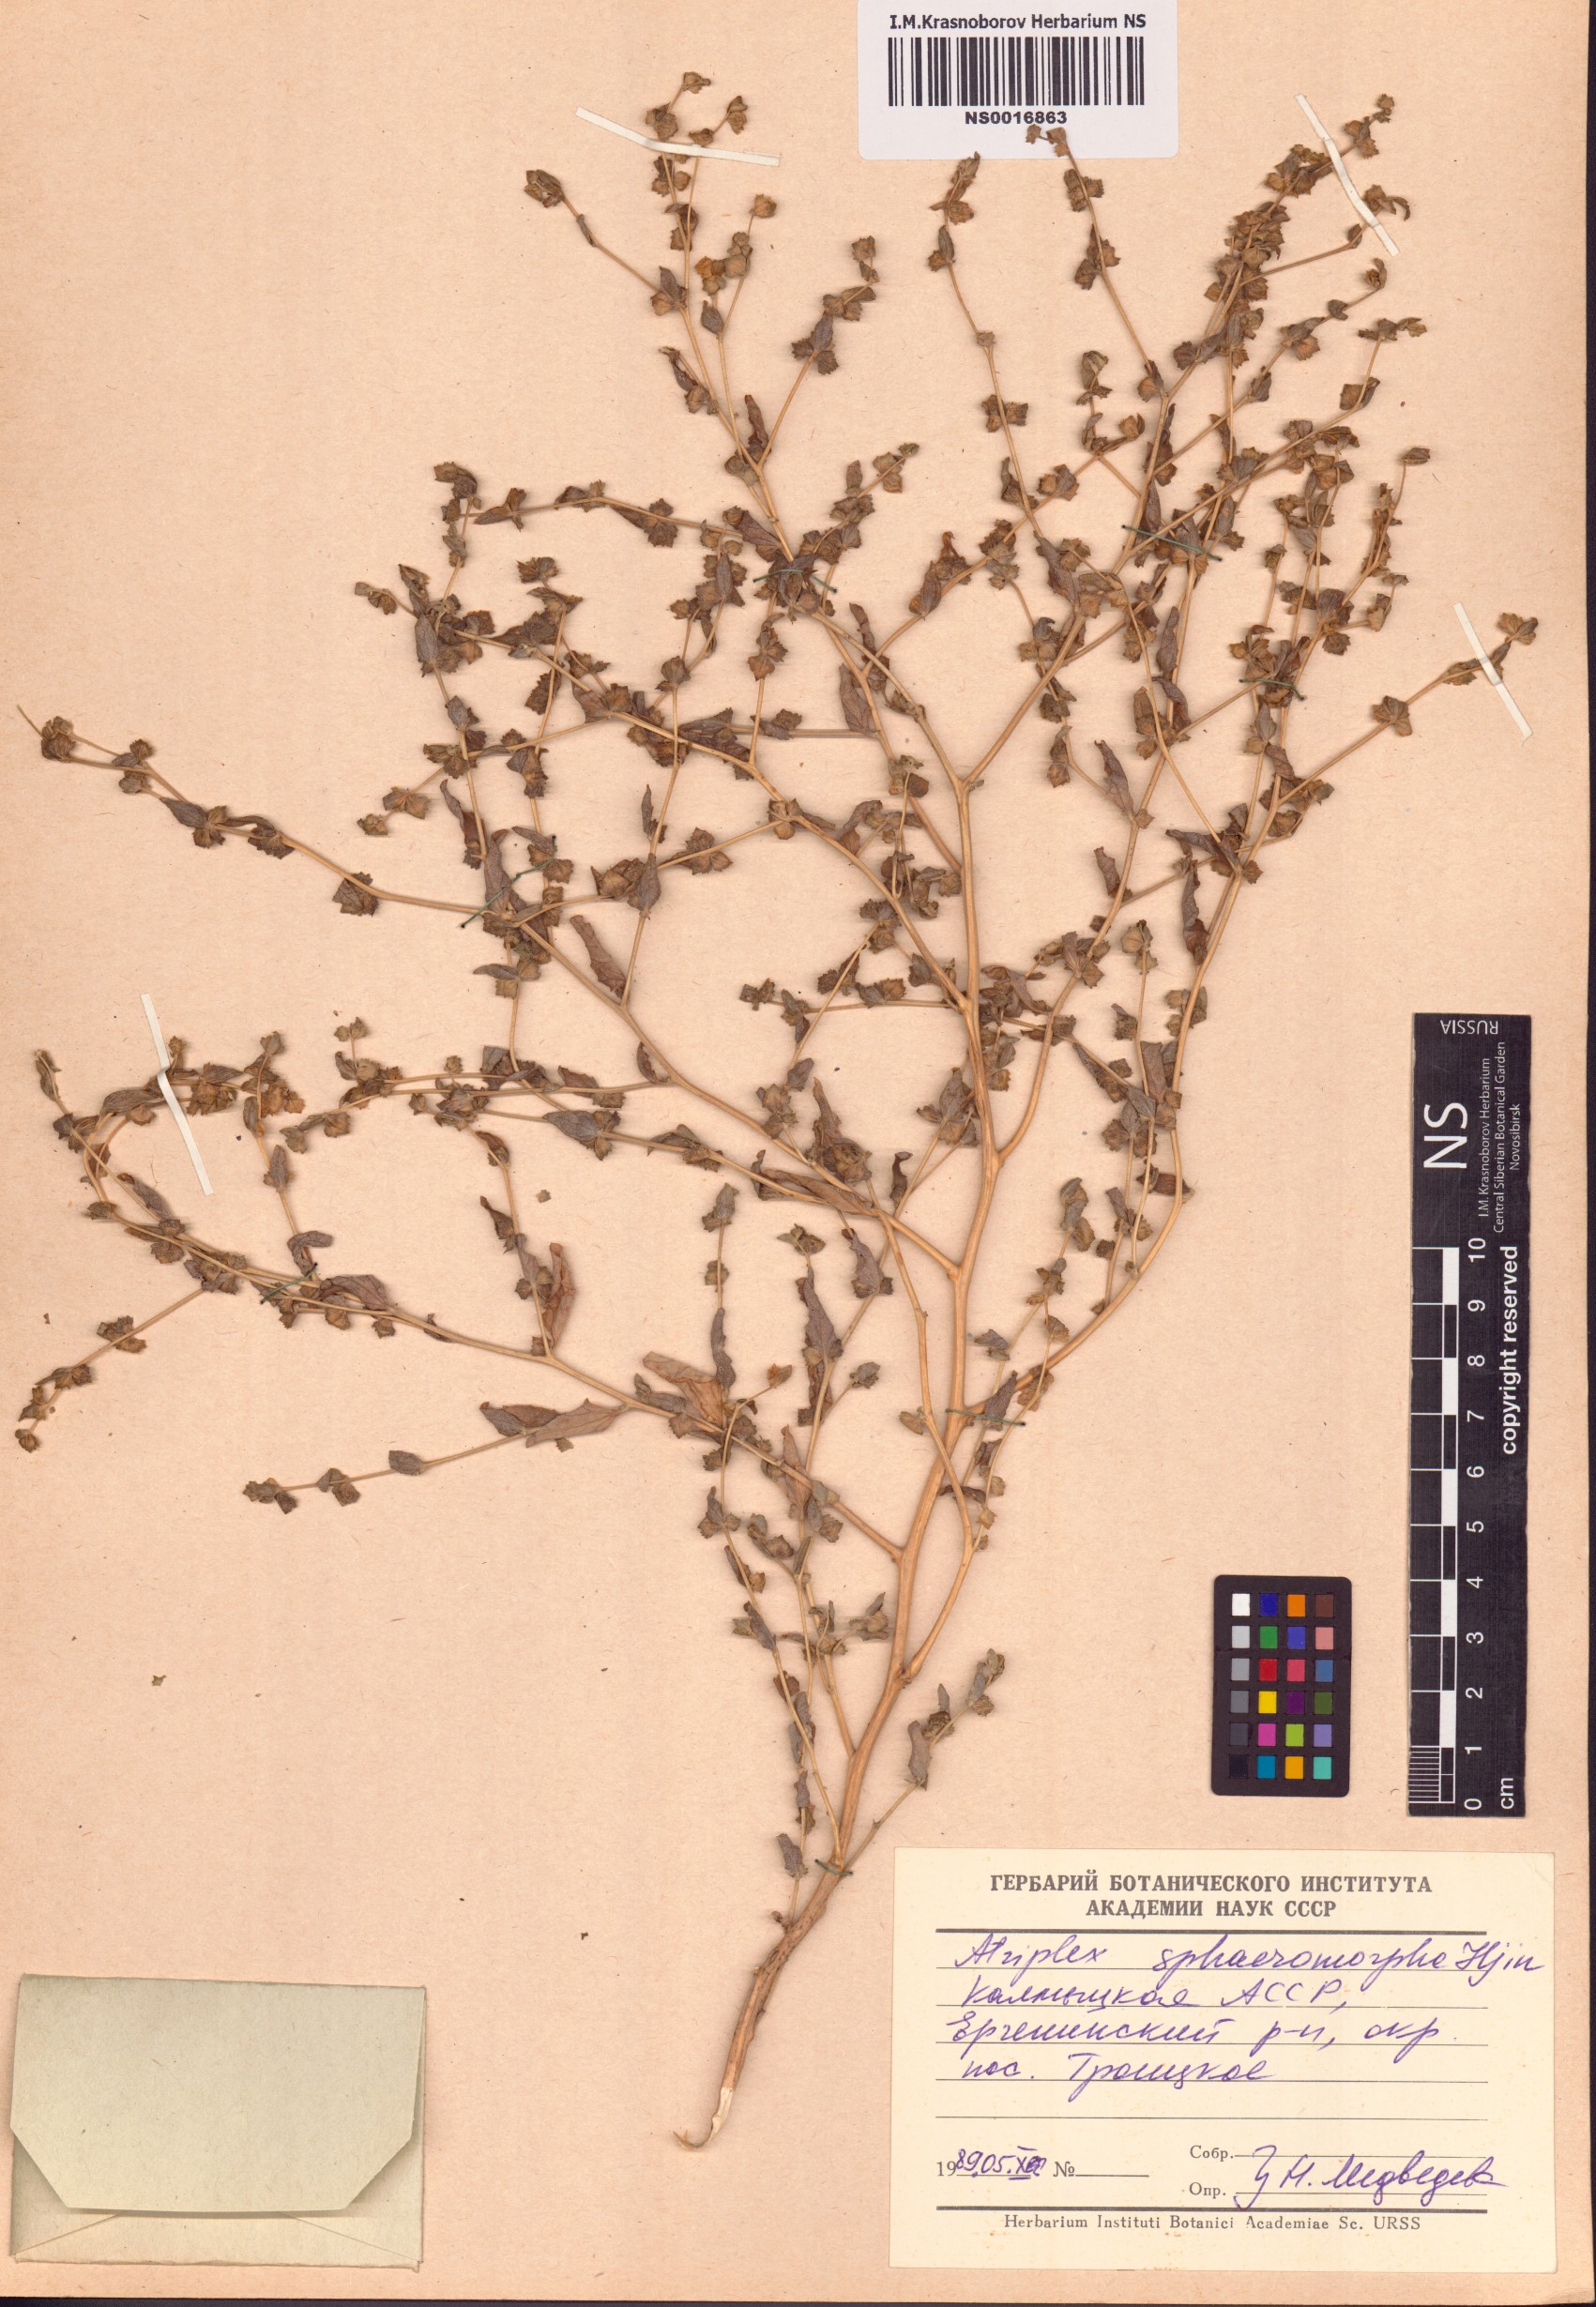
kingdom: Plantae
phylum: Tracheophyta
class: Magnoliopsida
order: Caryophyllales
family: Amaranthaceae
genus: Atriplex
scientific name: Atriplex sphaeromorpha
